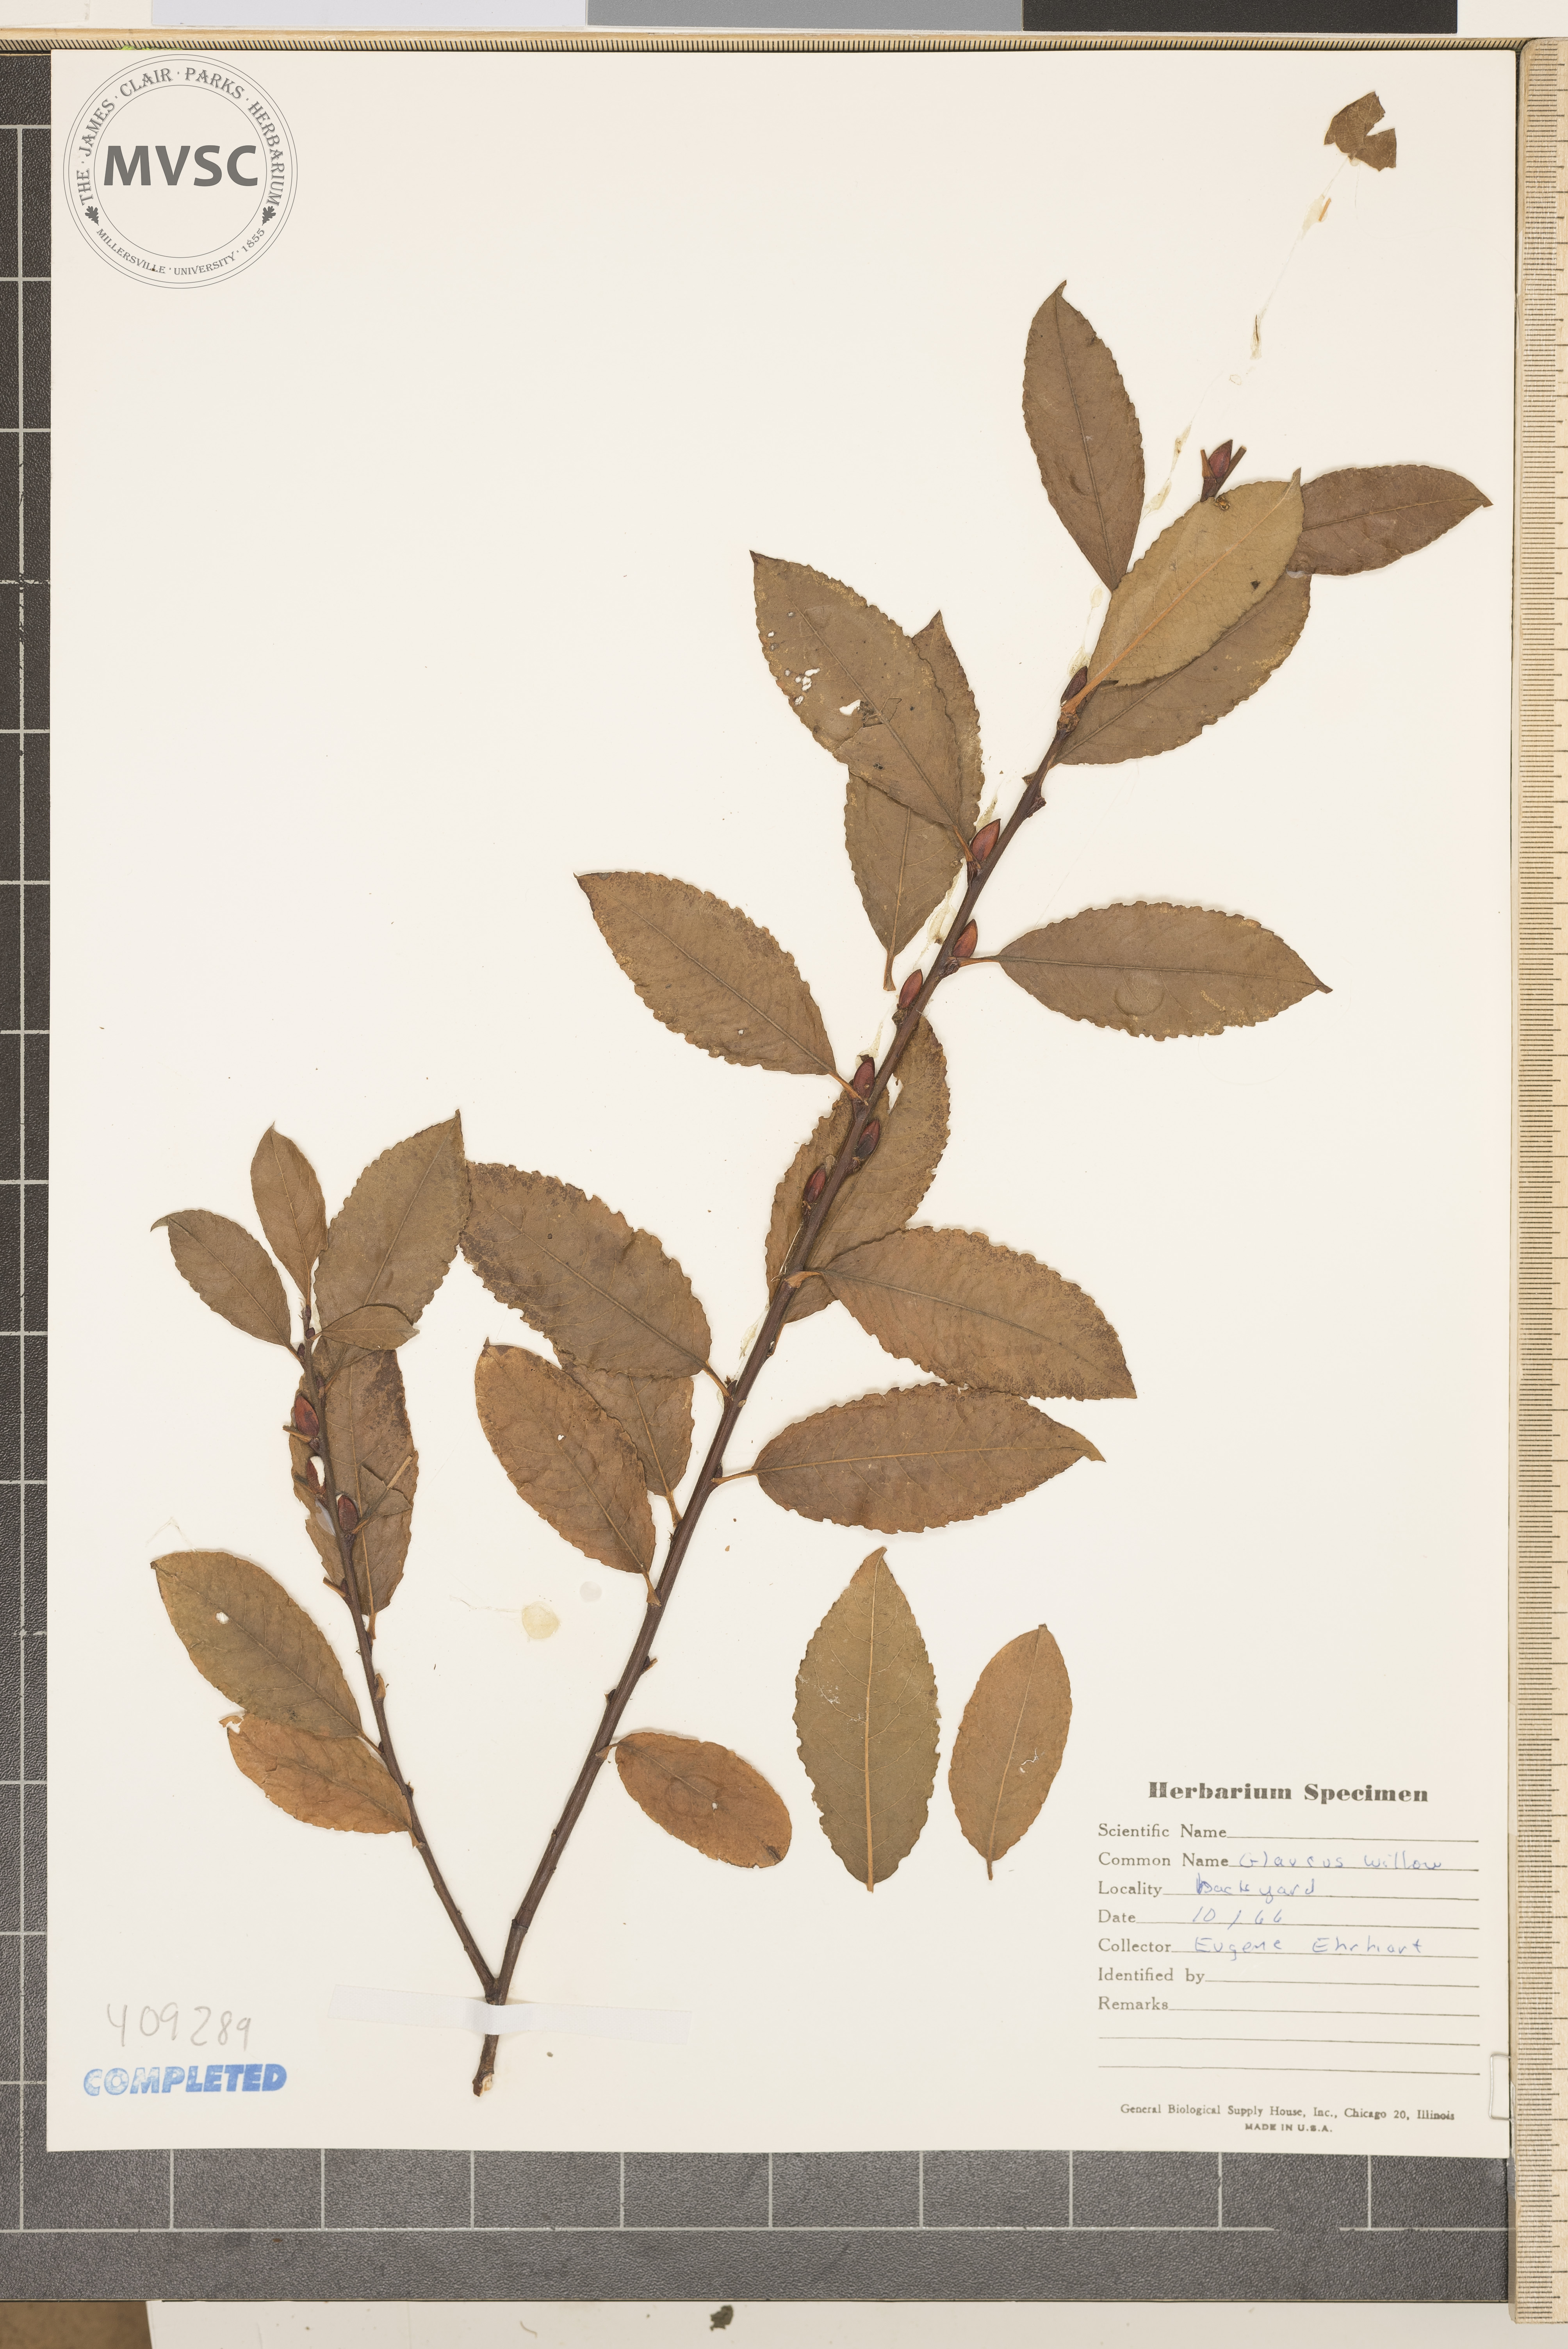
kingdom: Plantae
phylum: Tracheophyta
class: Magnoliopsida
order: Malpighiales
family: Salicaceae
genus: Salix
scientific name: Salix
